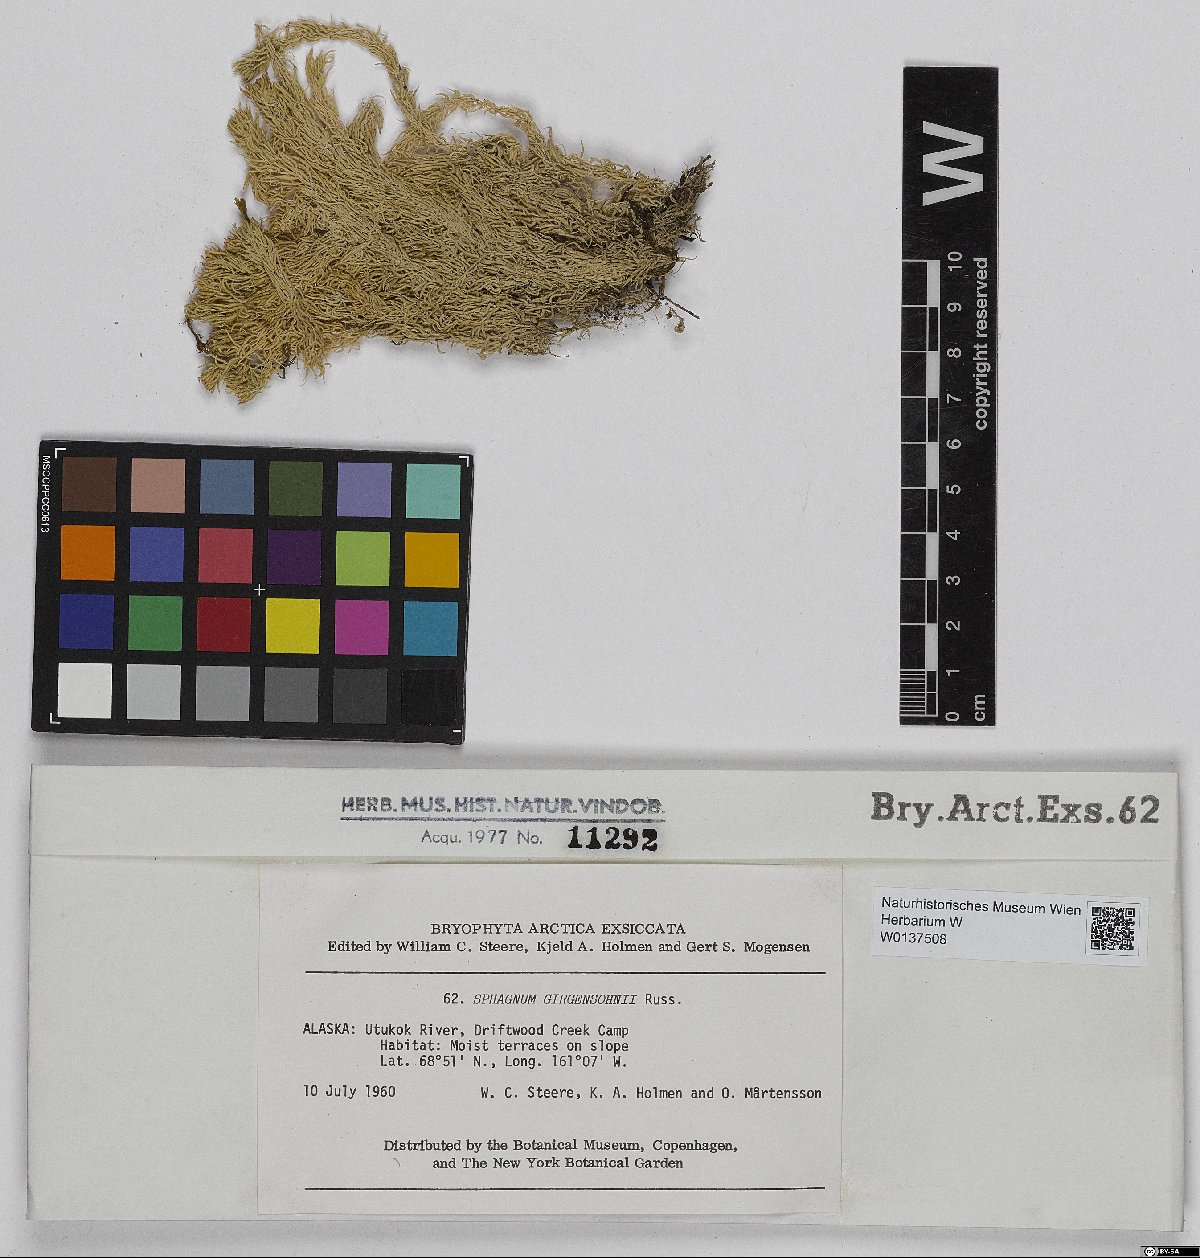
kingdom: Plantae
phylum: Bryophyta
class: Sphagnopsida
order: Sphagnales
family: Sphagnaceae
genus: Sphagnum
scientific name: Sphagnum girgensohnii
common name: Girgensohn's peat moss
